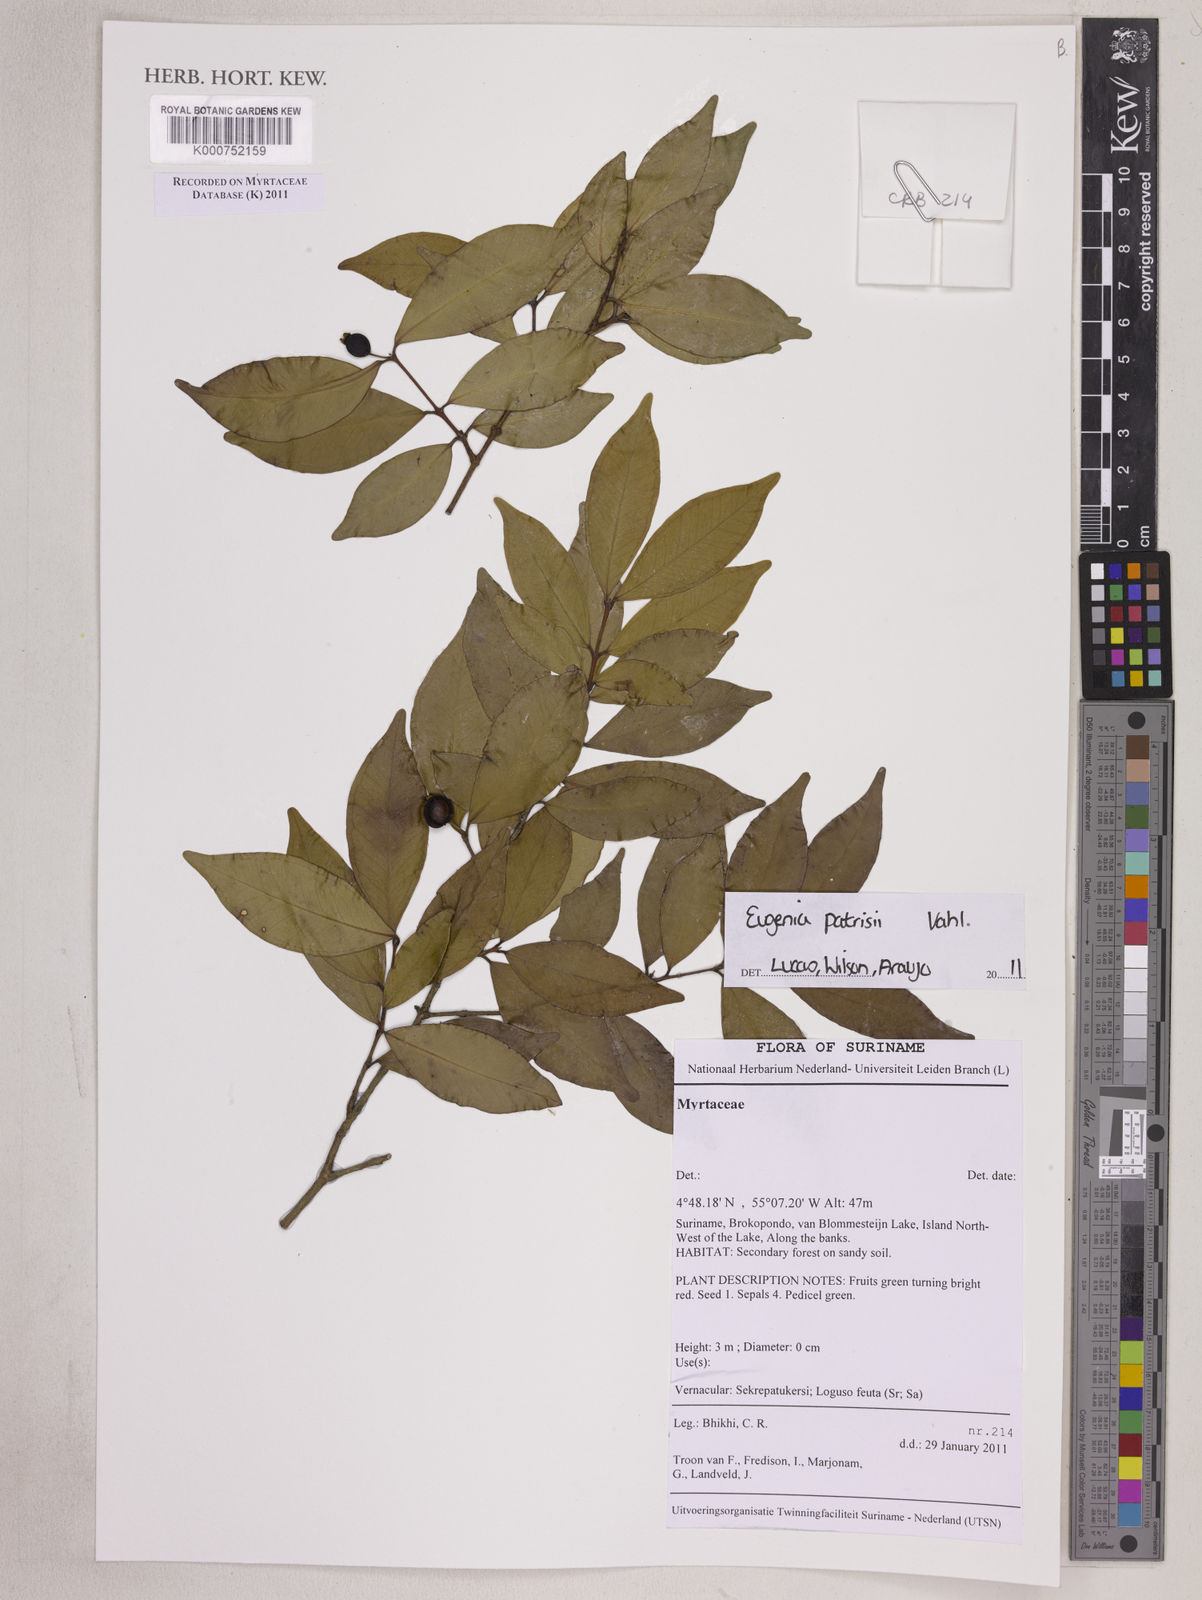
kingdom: Plantae
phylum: Tracheophyta
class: Magnoliopsida
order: Myrtales
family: Myrtaceae
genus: Eugenia
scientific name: Eugenia patrisii
